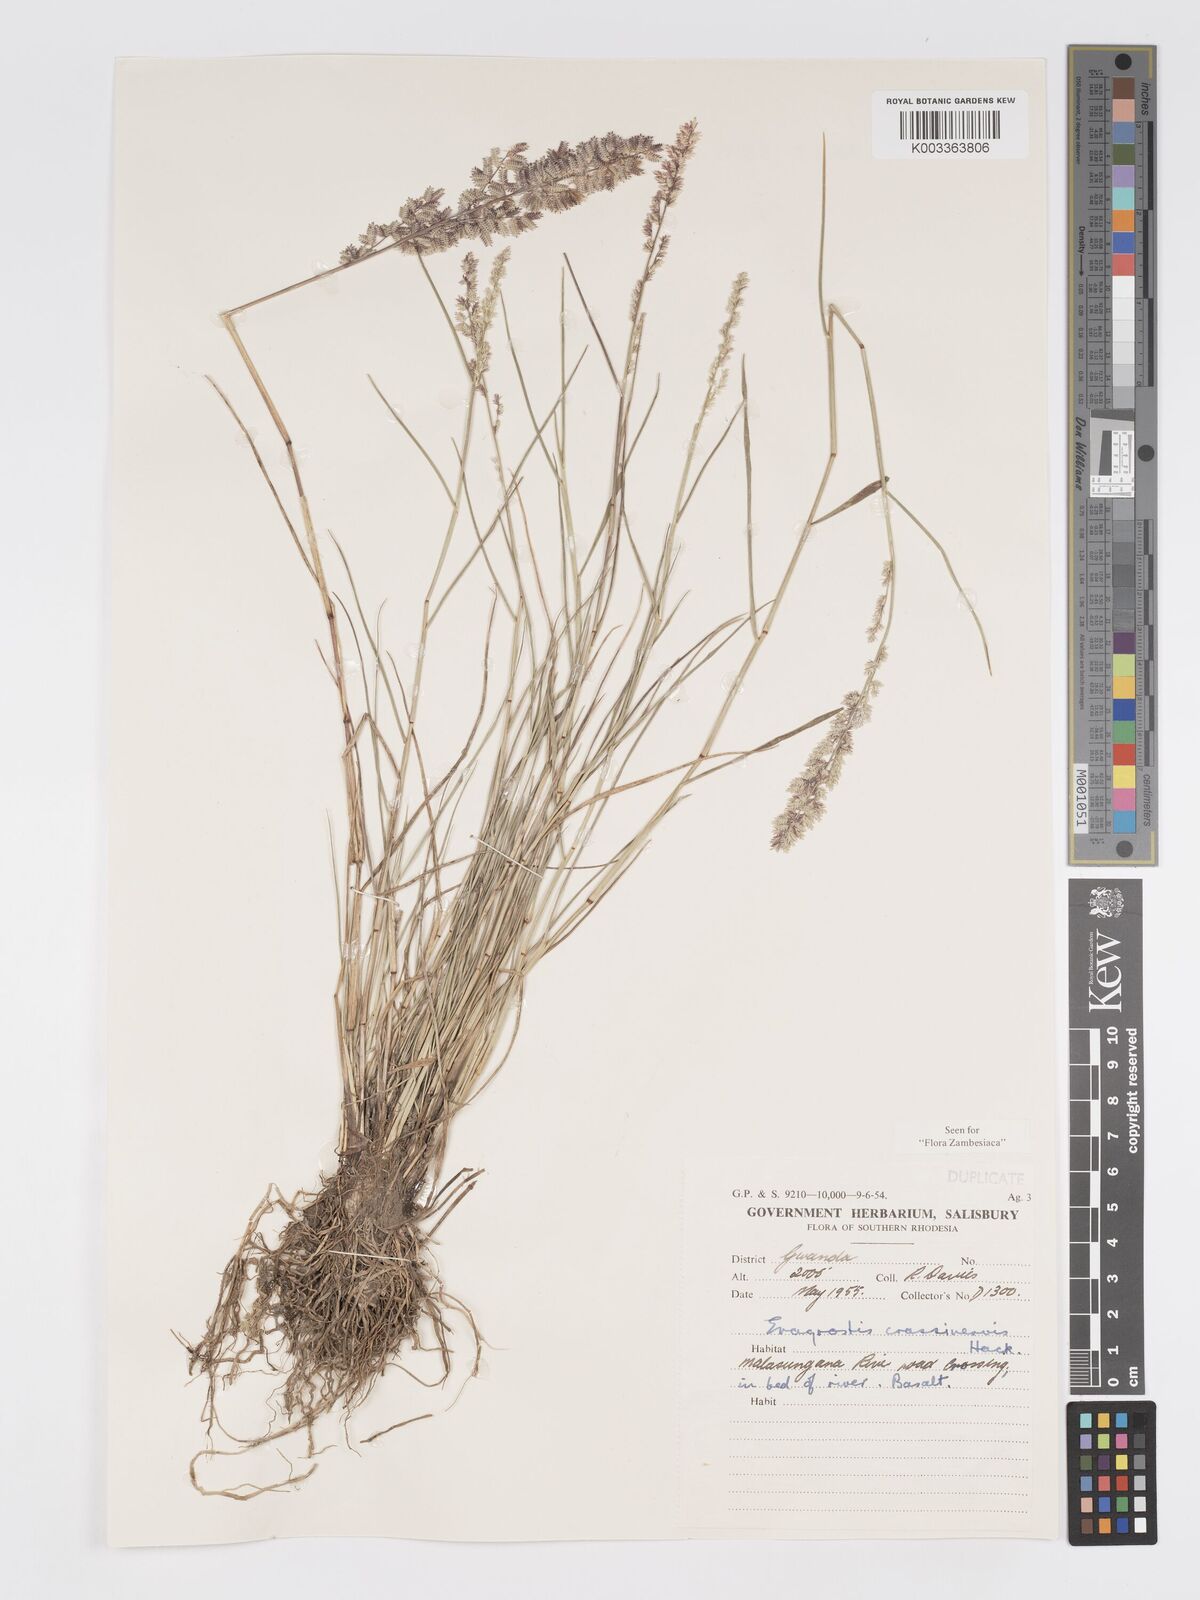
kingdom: Plantae
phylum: Tracheophyta
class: Liliopsida
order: Poales
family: Poaceae
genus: Eragrostis
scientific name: Eragrostis crassinervis
